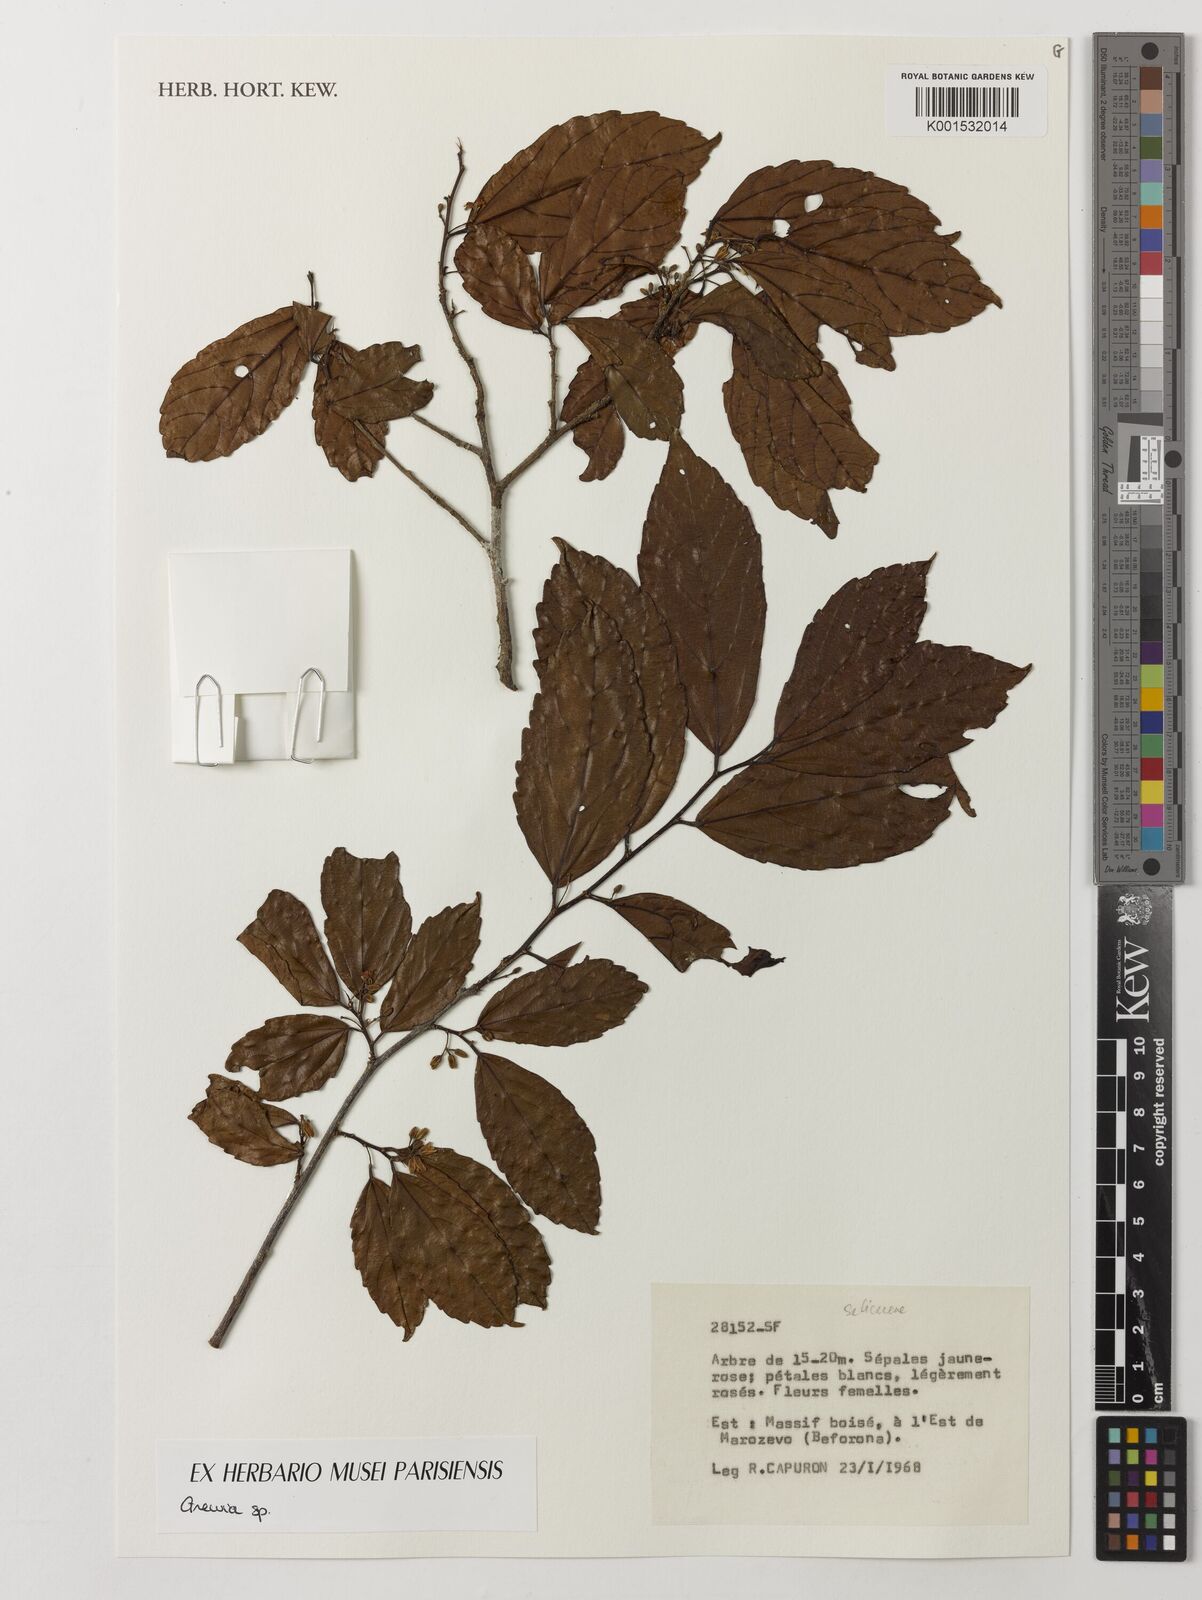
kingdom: Plantae
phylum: Tracheophyta
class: Magnoliopsida
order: Malpighiales
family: Salicaceae
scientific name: Salicaceae
